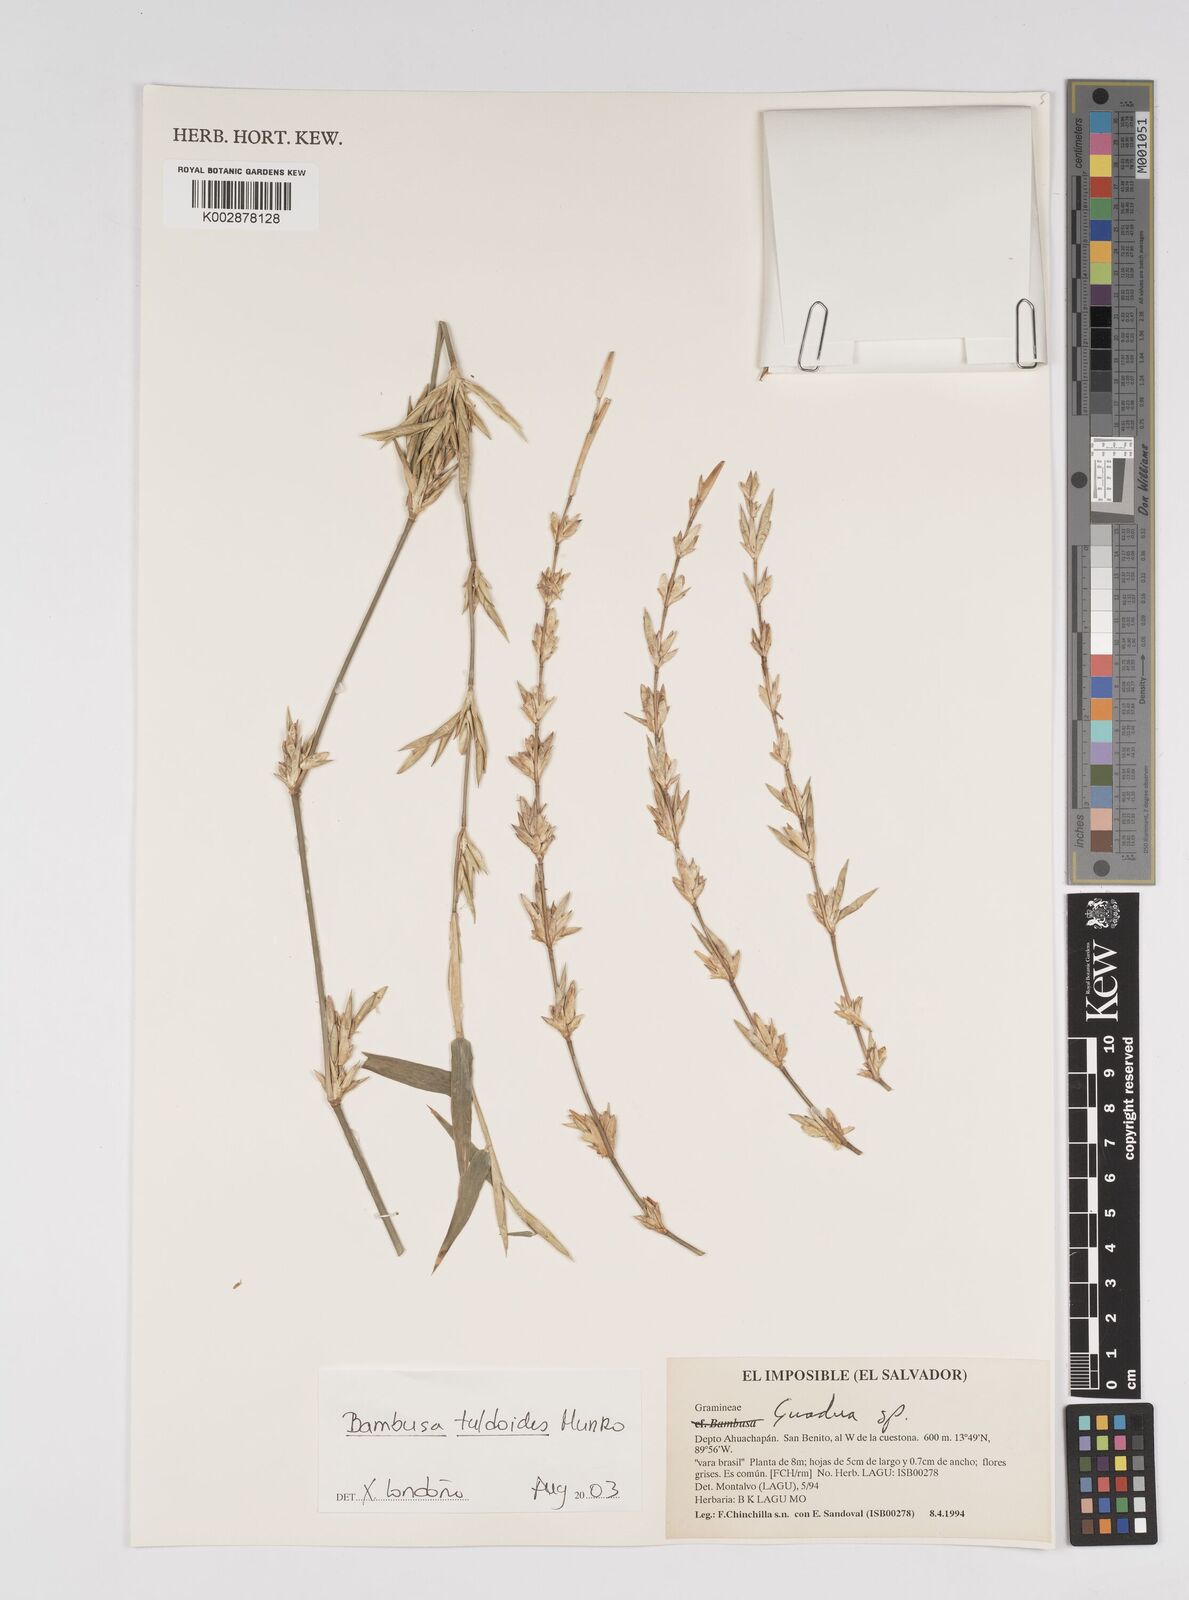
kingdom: Plantae
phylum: Tracheophyta
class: Liliopsida
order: Poales
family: Poaceae
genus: Bambusa
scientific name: Bambusa tuldoides
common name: Verdant bamboo
